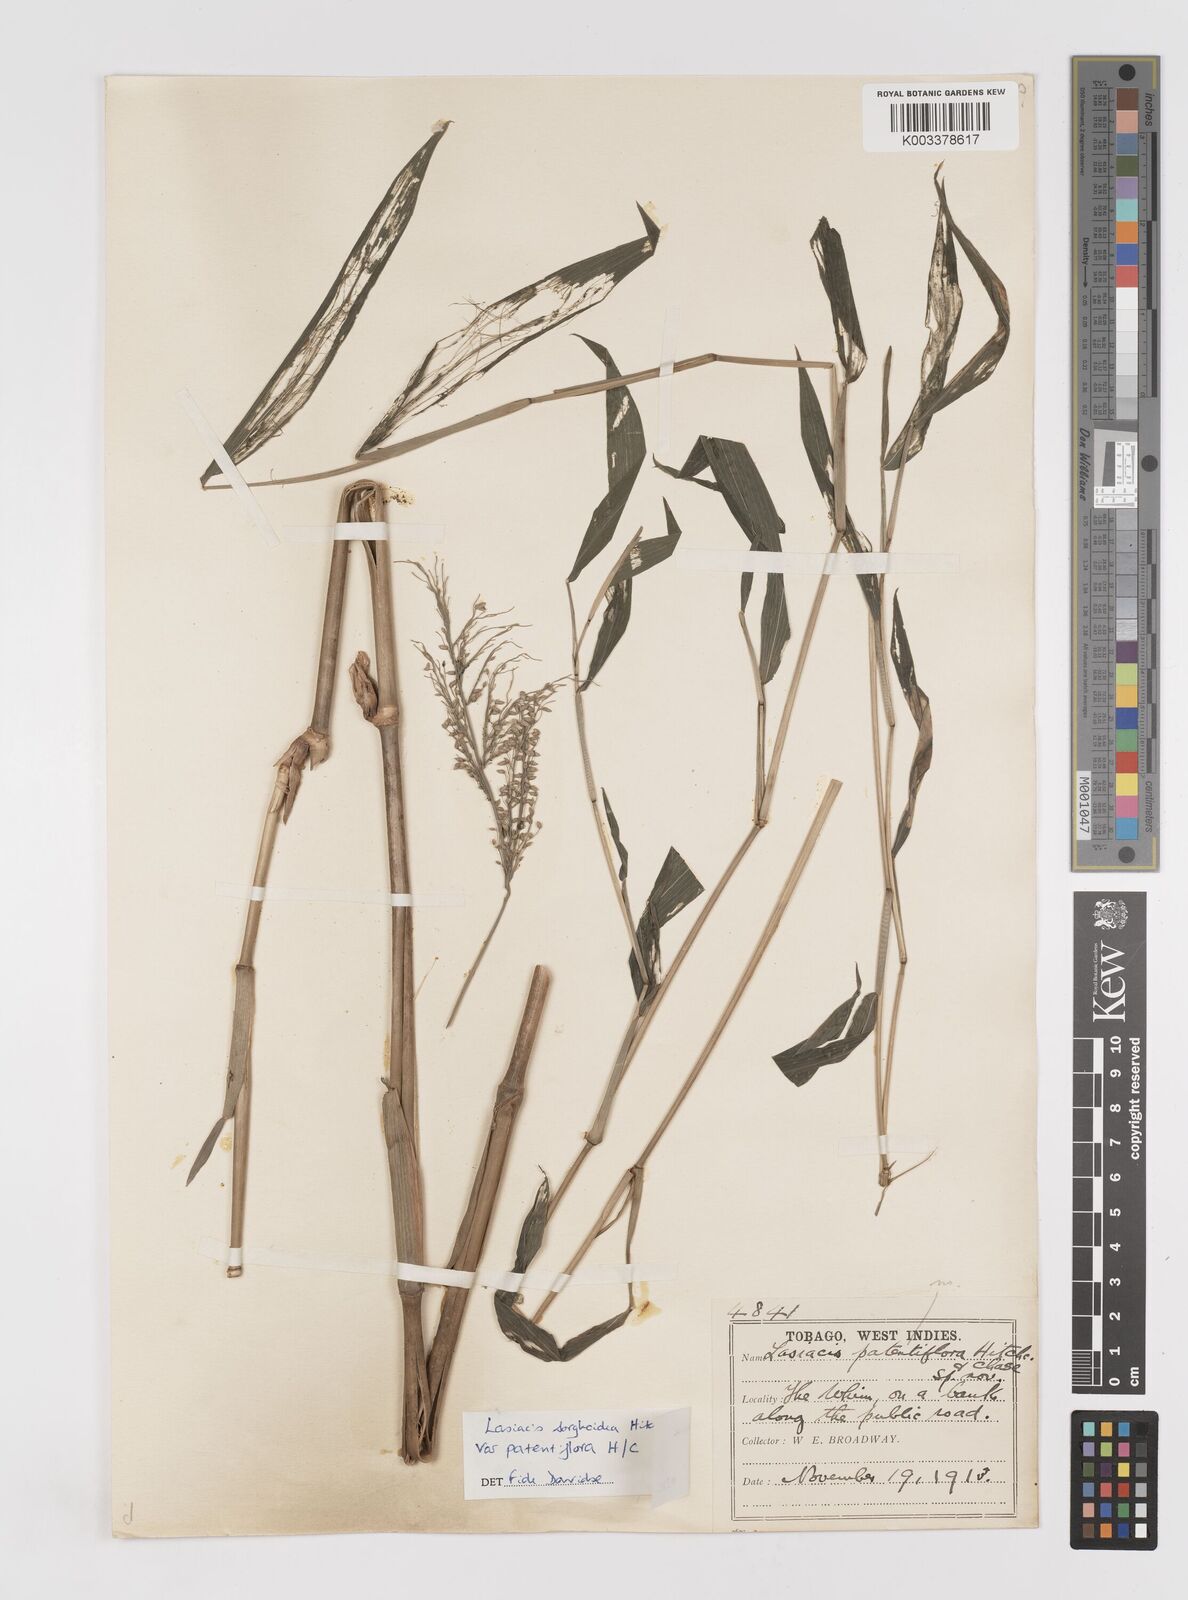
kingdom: Plantae
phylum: Tracheophyta
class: Liliopsida
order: Poales
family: Poaceae
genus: Lasiacis
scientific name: Lasiacis maculata
